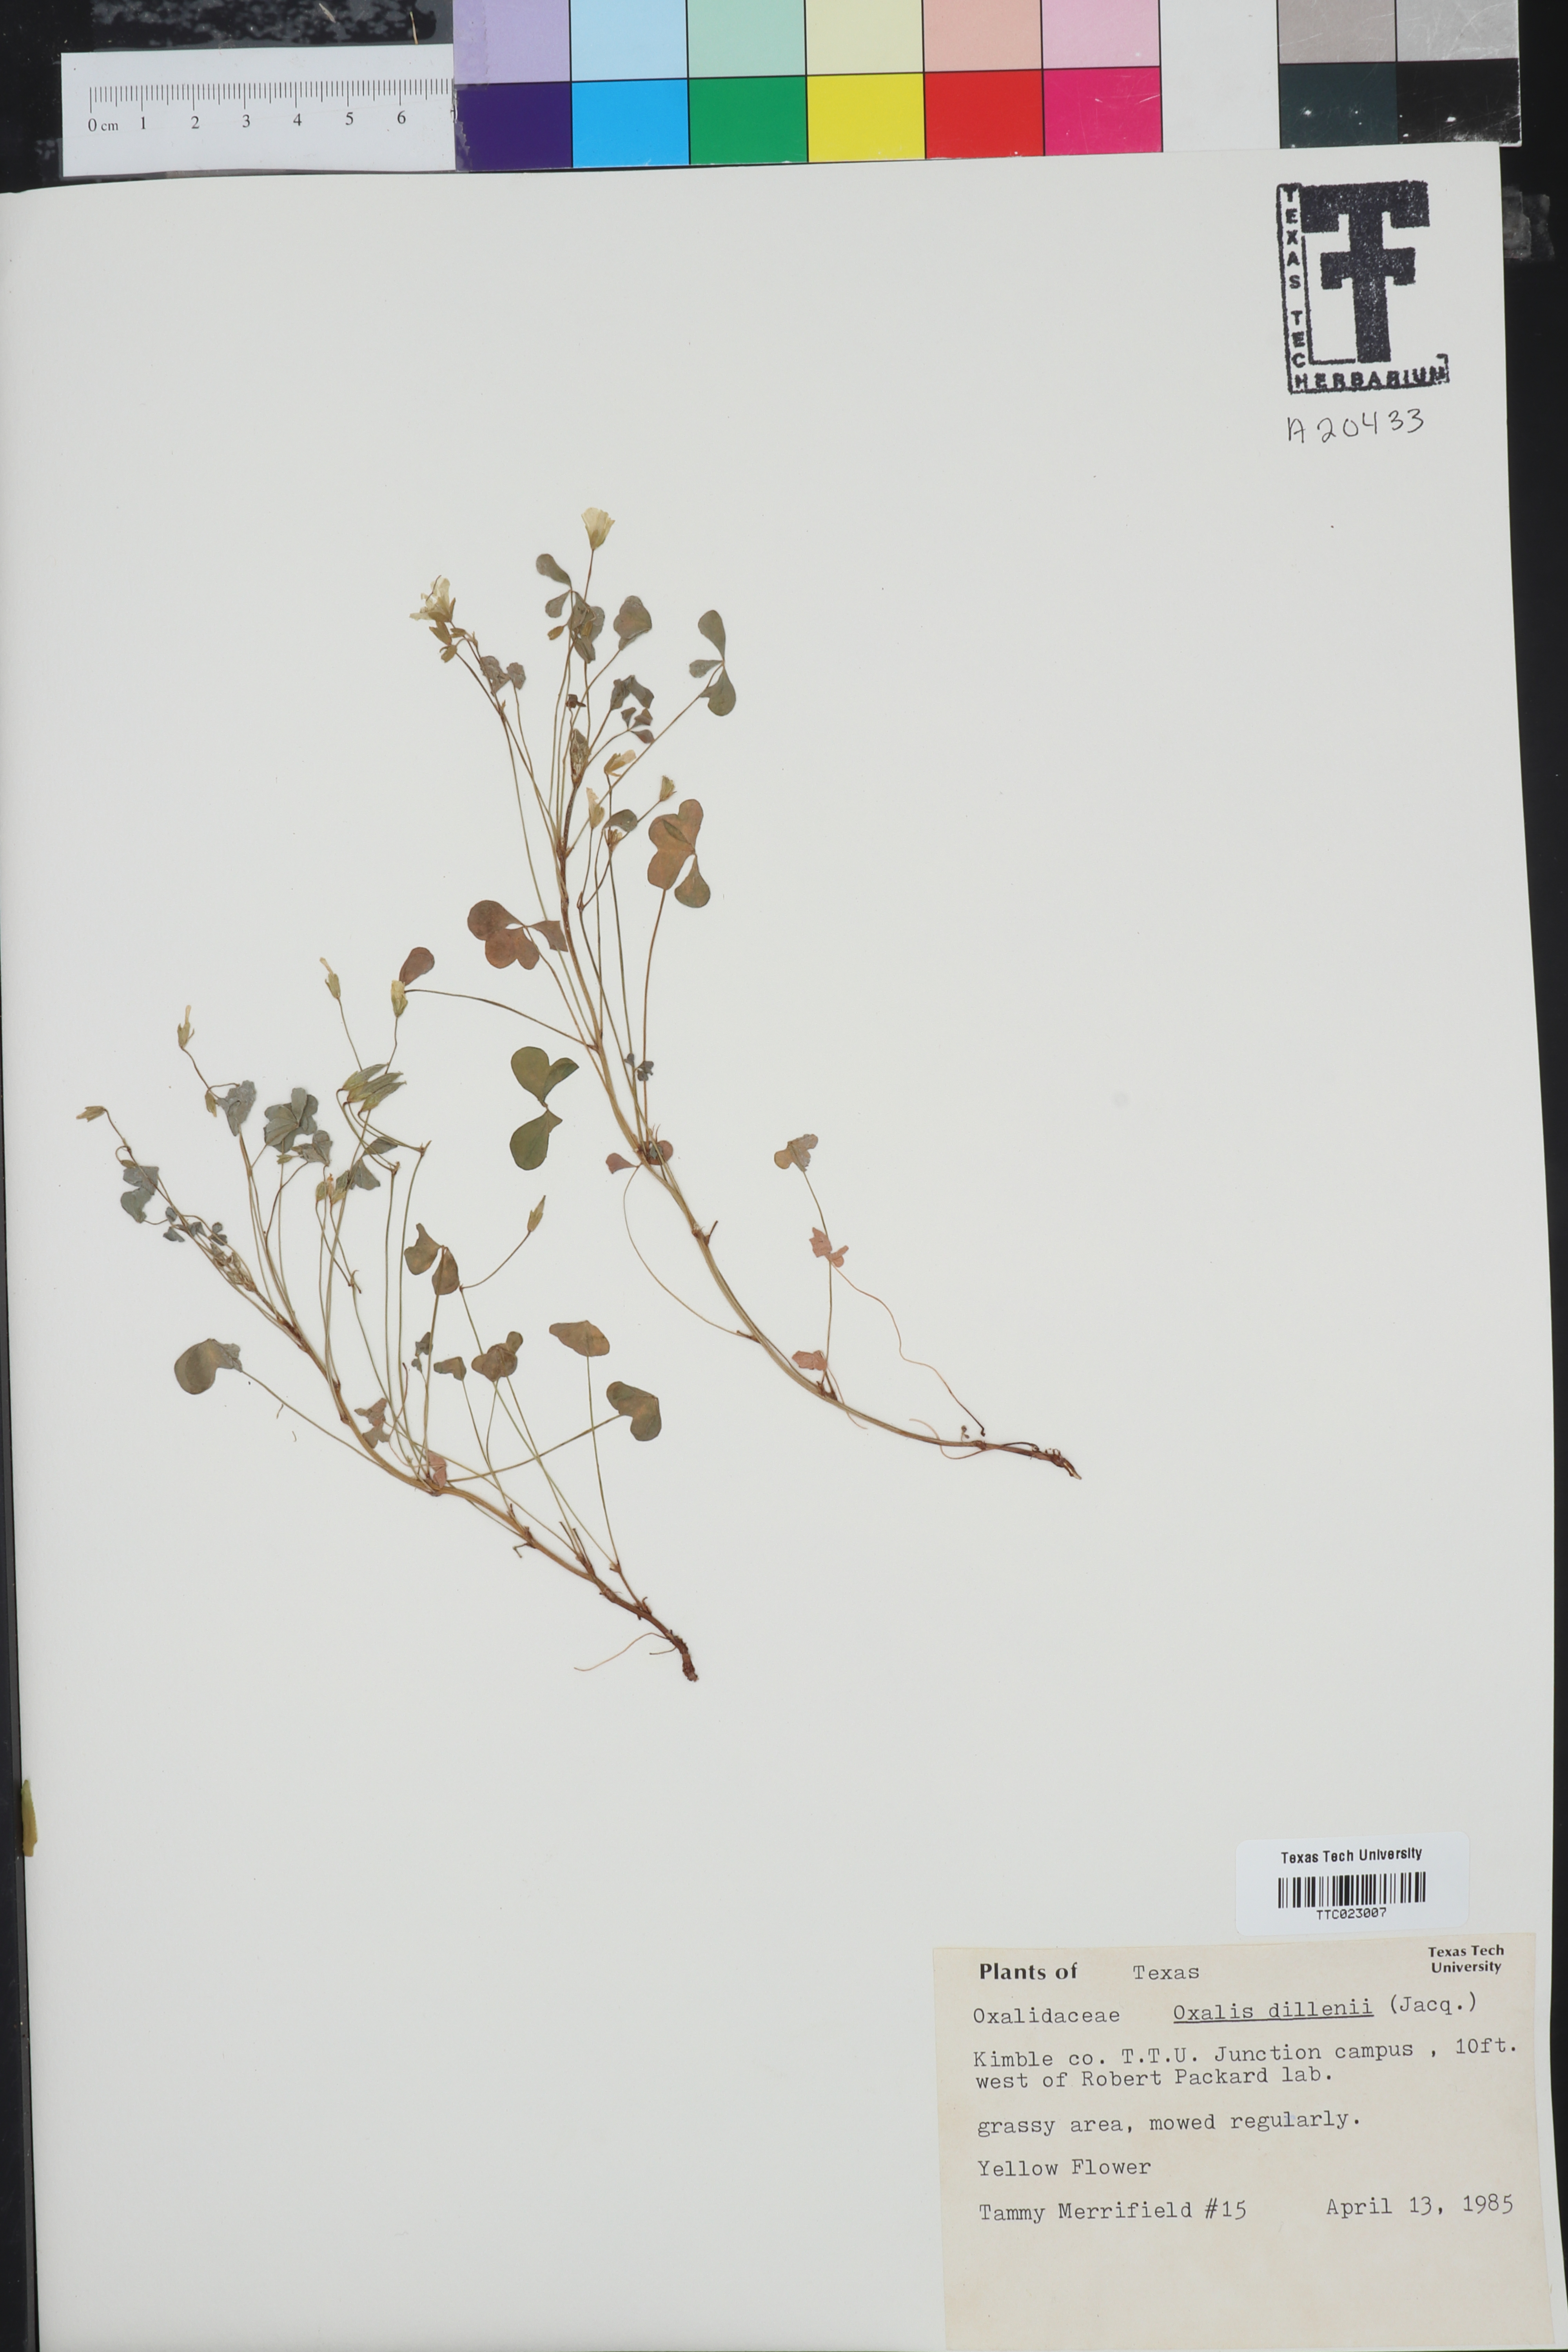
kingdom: Plantae
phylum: Tracheophyta
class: Magnoliopsida
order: Oxalidales
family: Oxalidaceae
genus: Oxalis
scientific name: Oxalis dillenii
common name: Sussex yellow-sorrel
